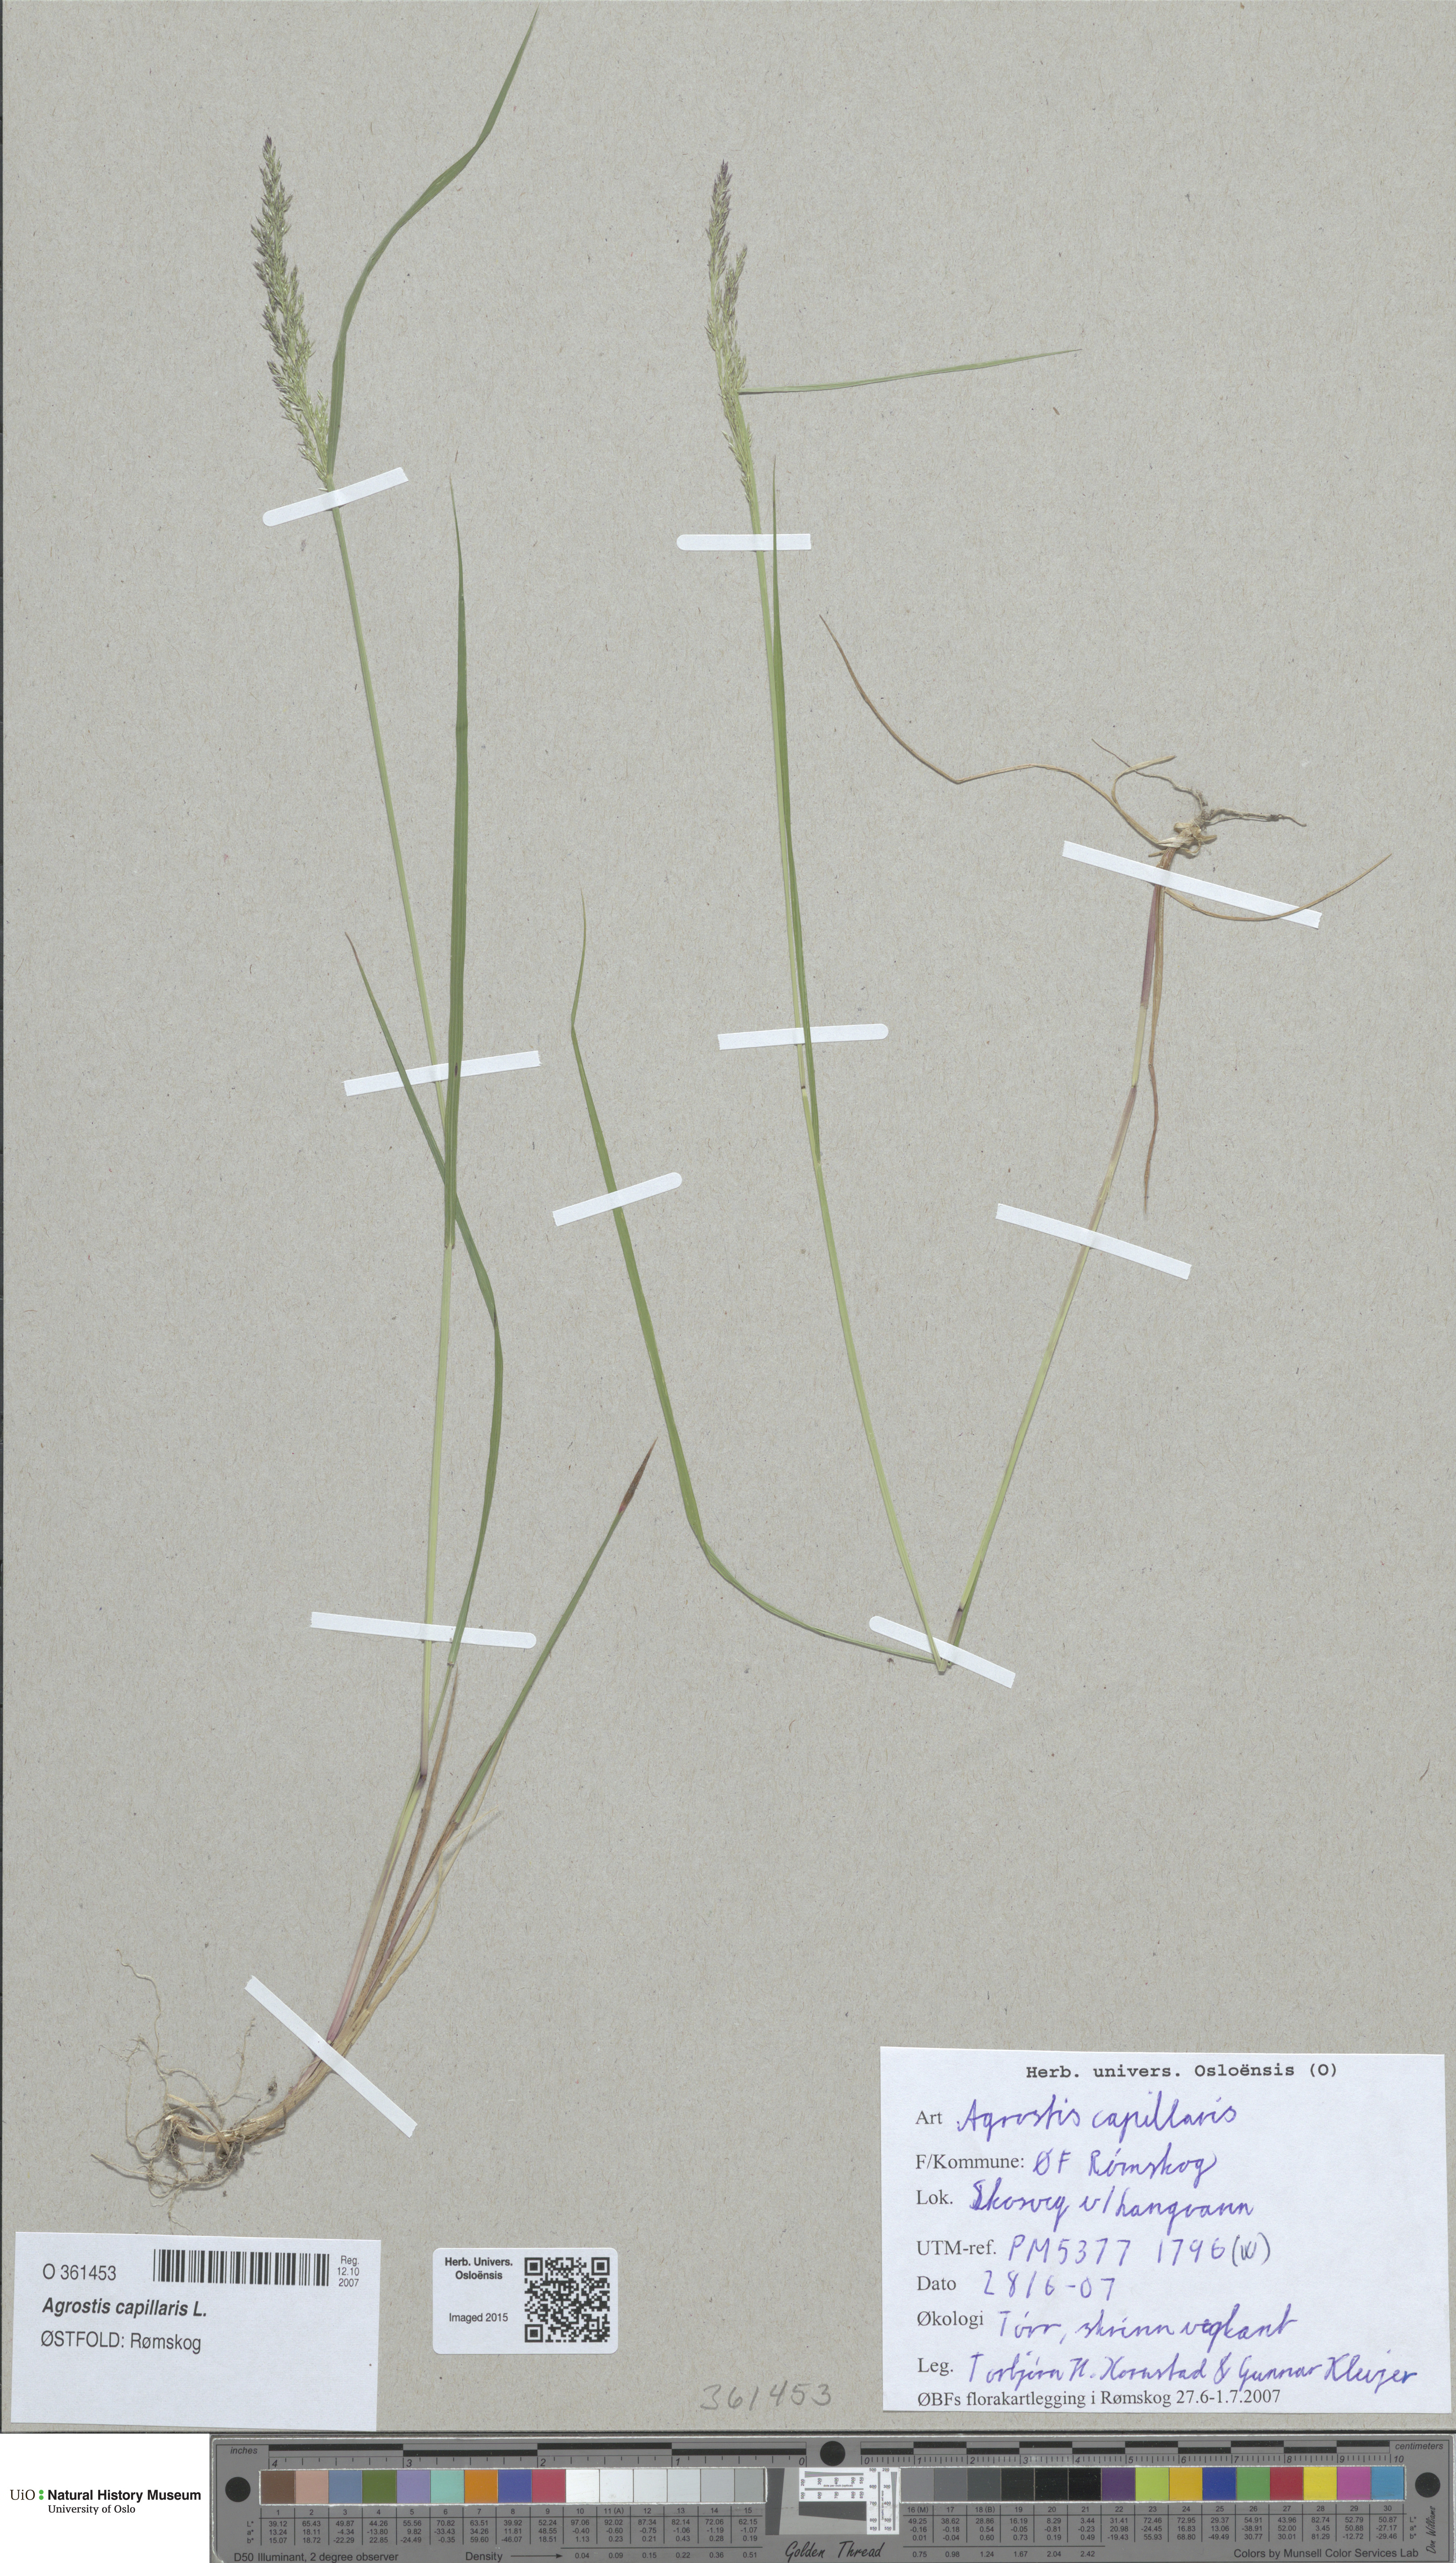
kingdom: Plantae
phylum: Tracheophyta
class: Liliopsida
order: Poales
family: Poaceae
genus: Agrostis
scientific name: Agrostis capillaris
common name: Colonial bentgrass
